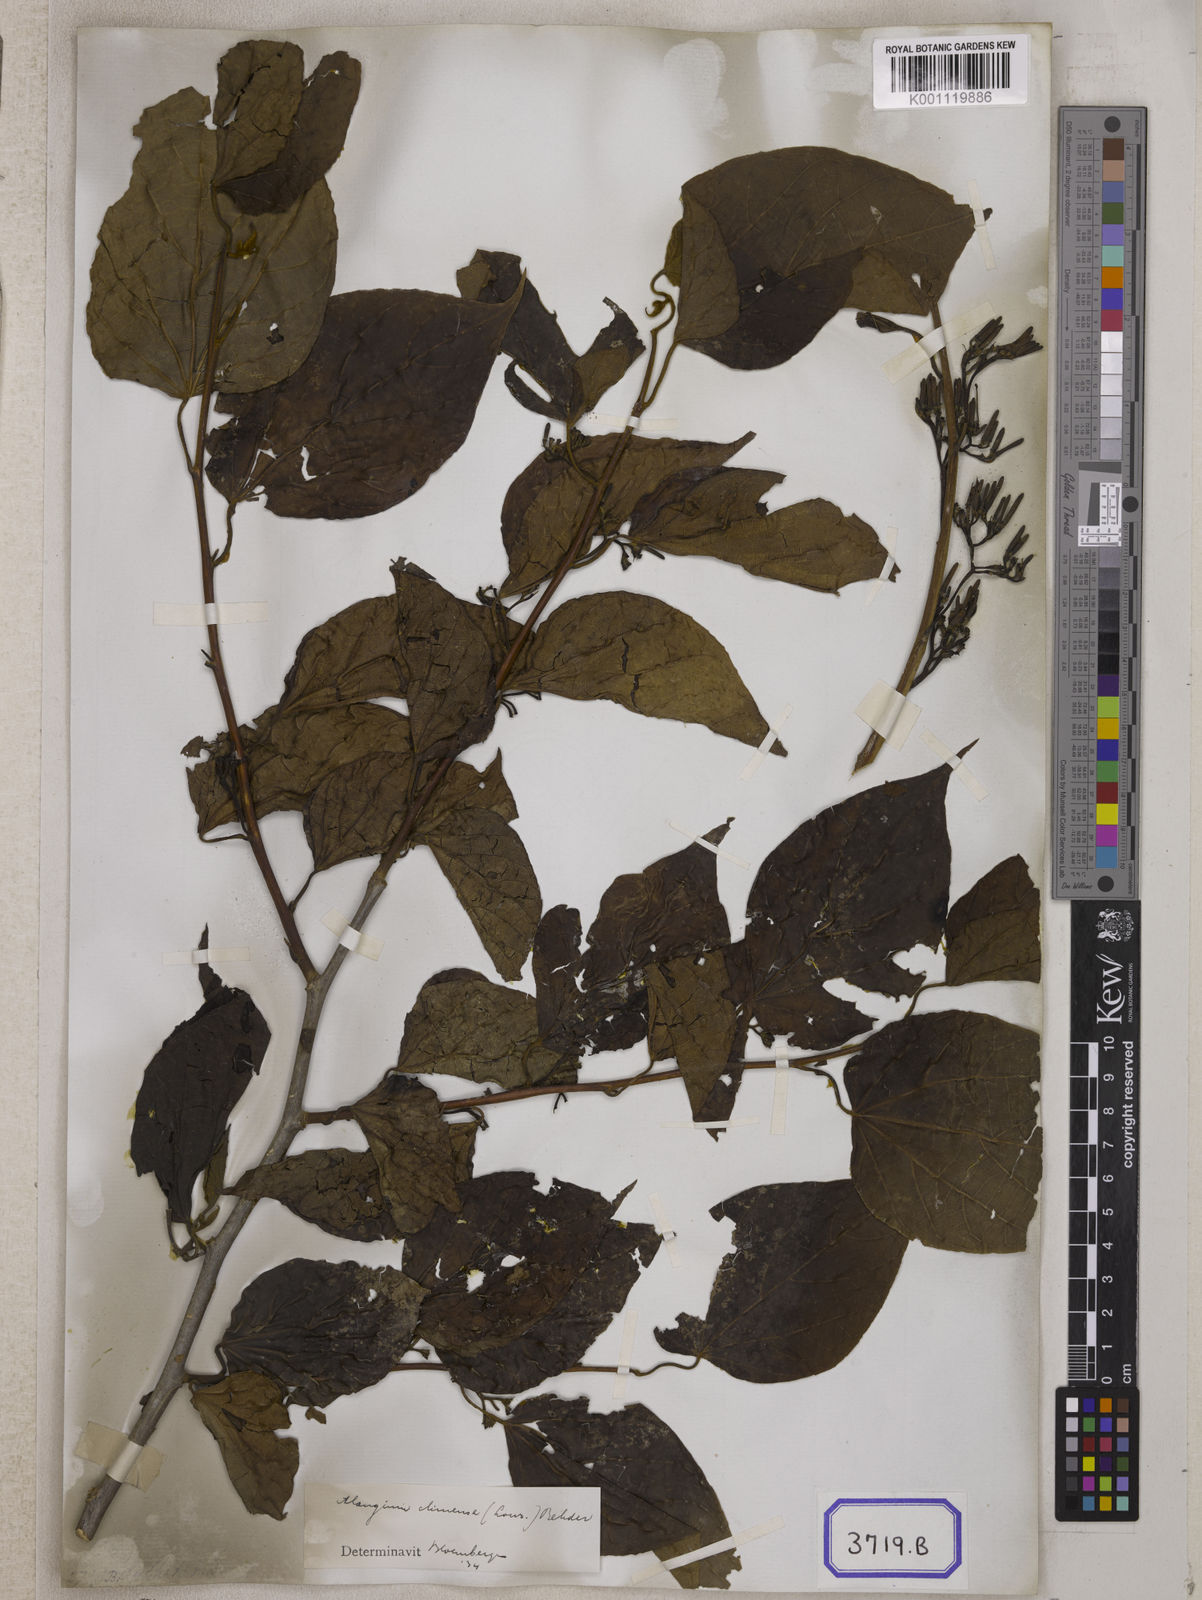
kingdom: Plantae
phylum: Tracheophyta
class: Magnoliopsida
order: Cornales
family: Cornaceae
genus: Alangium
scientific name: Alangium chinense
